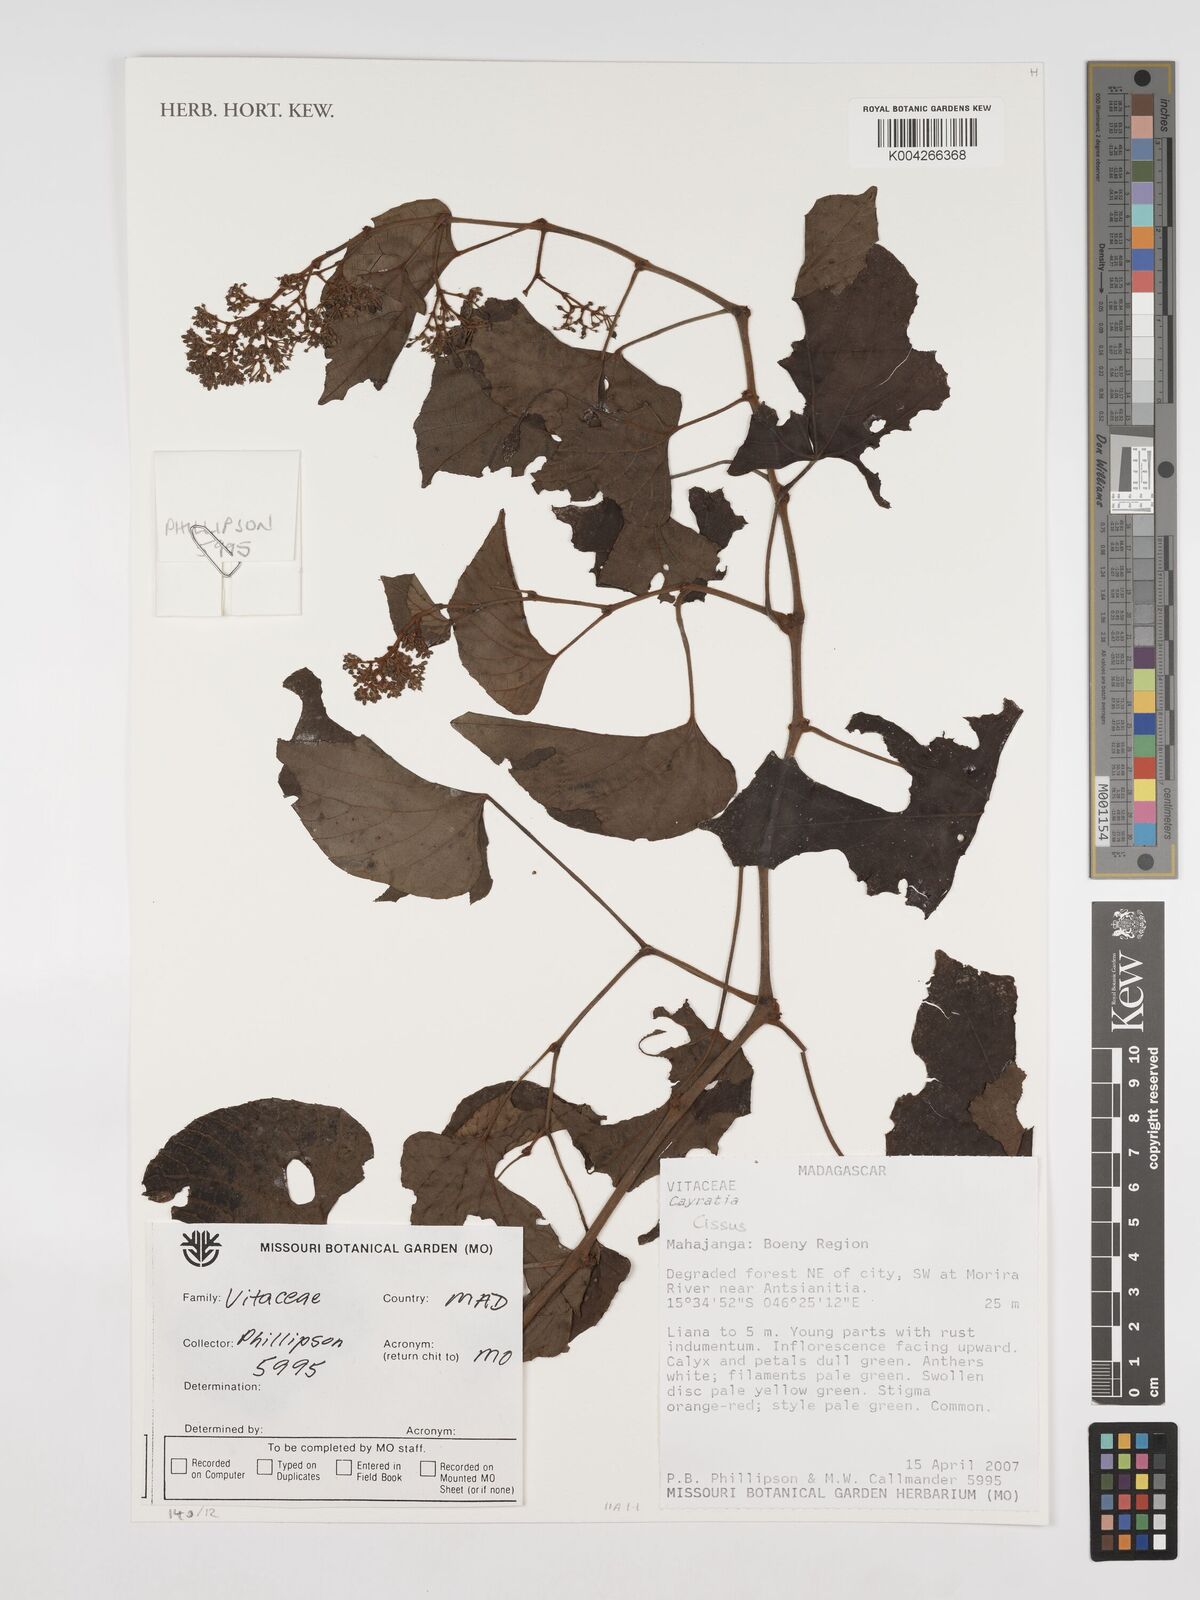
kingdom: Plantae
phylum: Tracheophyta
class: Magnoliopsida
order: Vitales
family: Vitaceae
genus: Cissus
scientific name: Cissus
